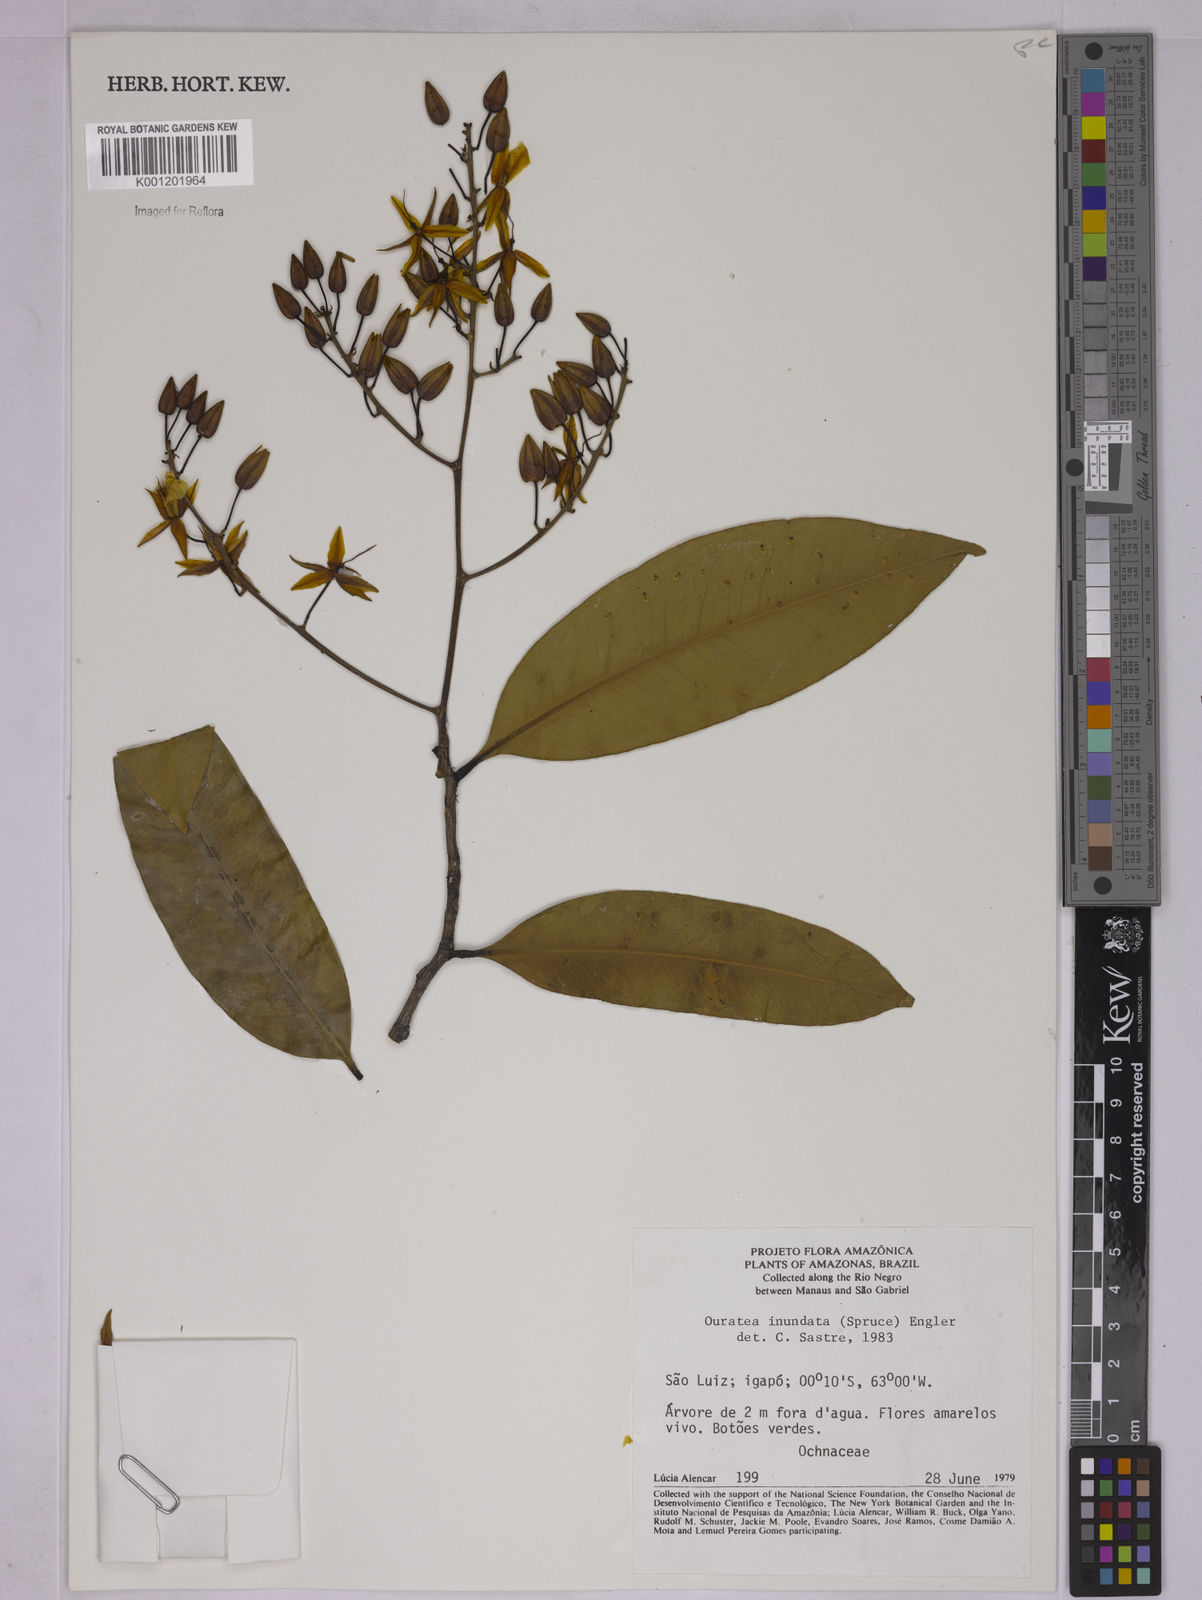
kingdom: Plantae
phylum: Tracheophyta
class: Magnoliopsida
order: Malpighiales
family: Ochnaceae
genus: Ouratea
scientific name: Ouratea inundata
